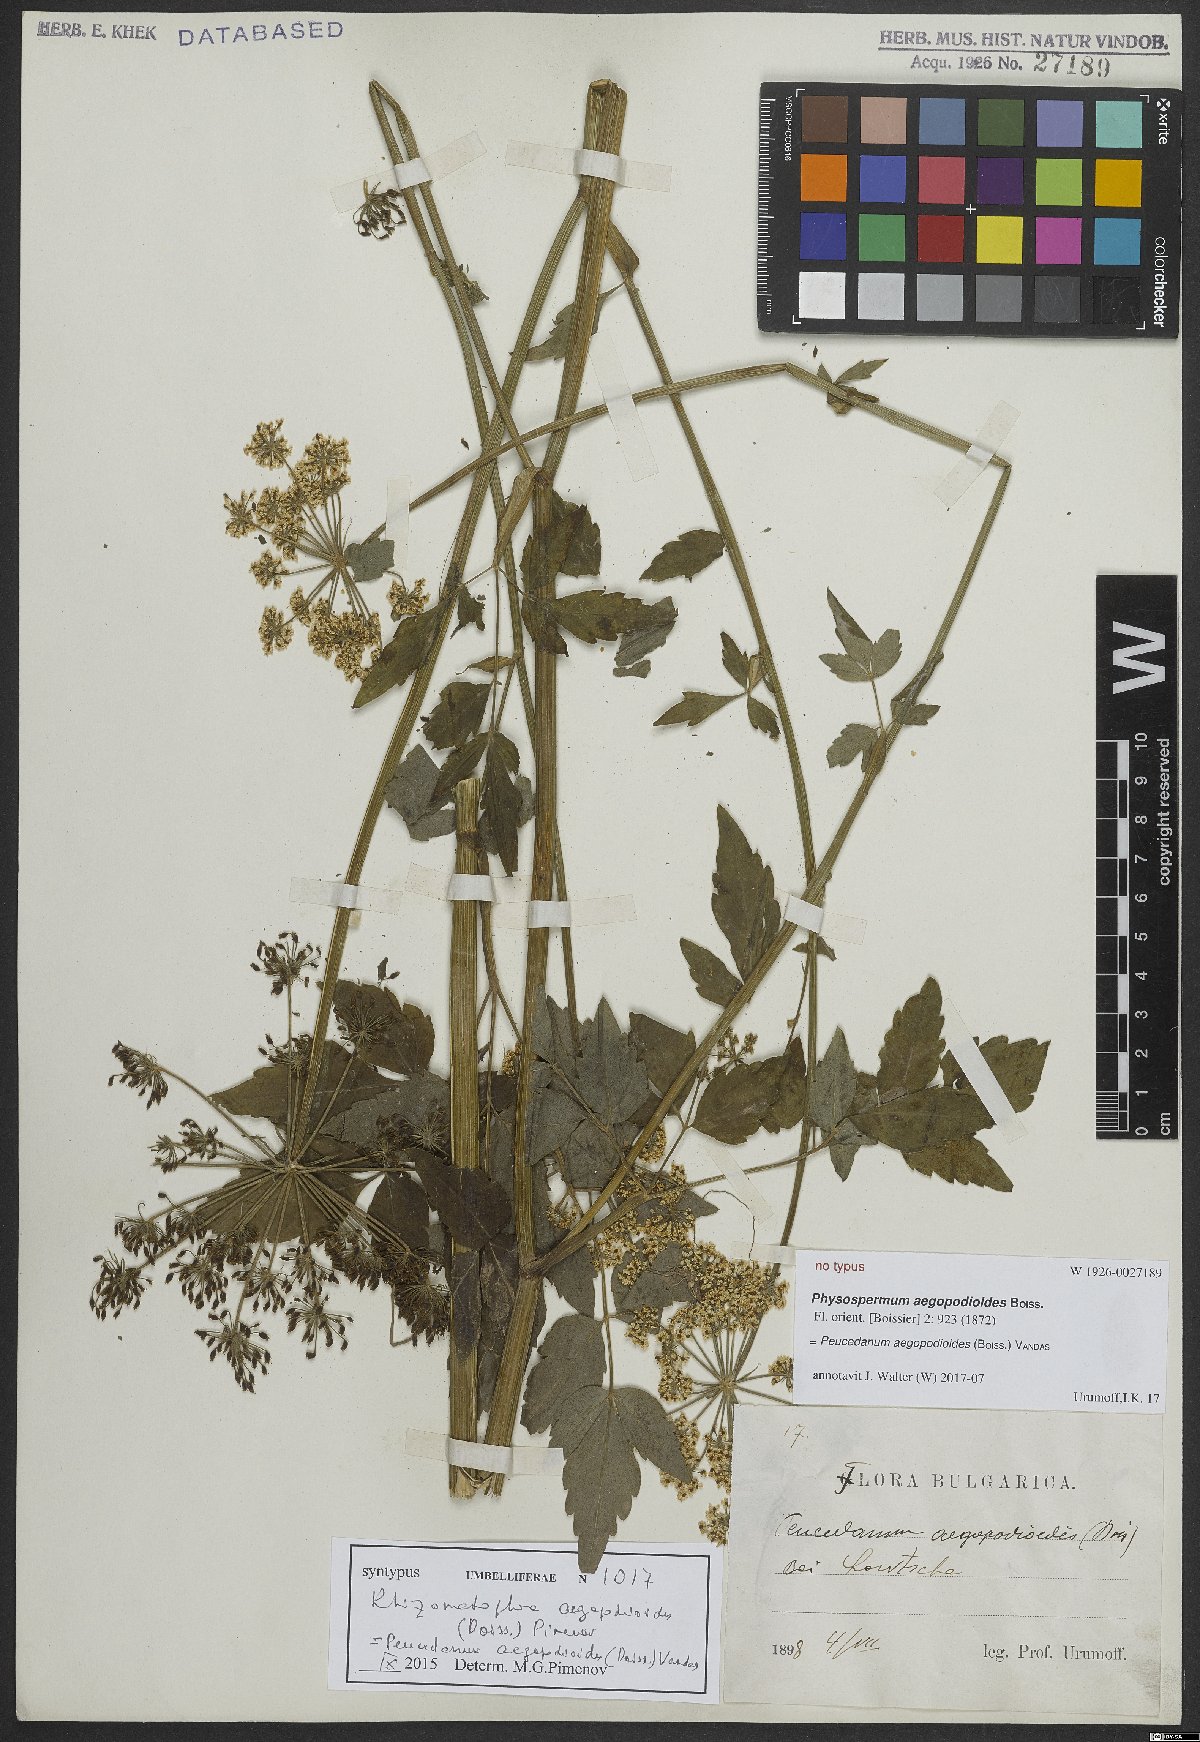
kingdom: Plantae
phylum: Tracheophyta
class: Magnoliopsida
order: Apiales
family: Apiaceae
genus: Rhizomatophora
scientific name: Rhizomatophora aegopodioides
